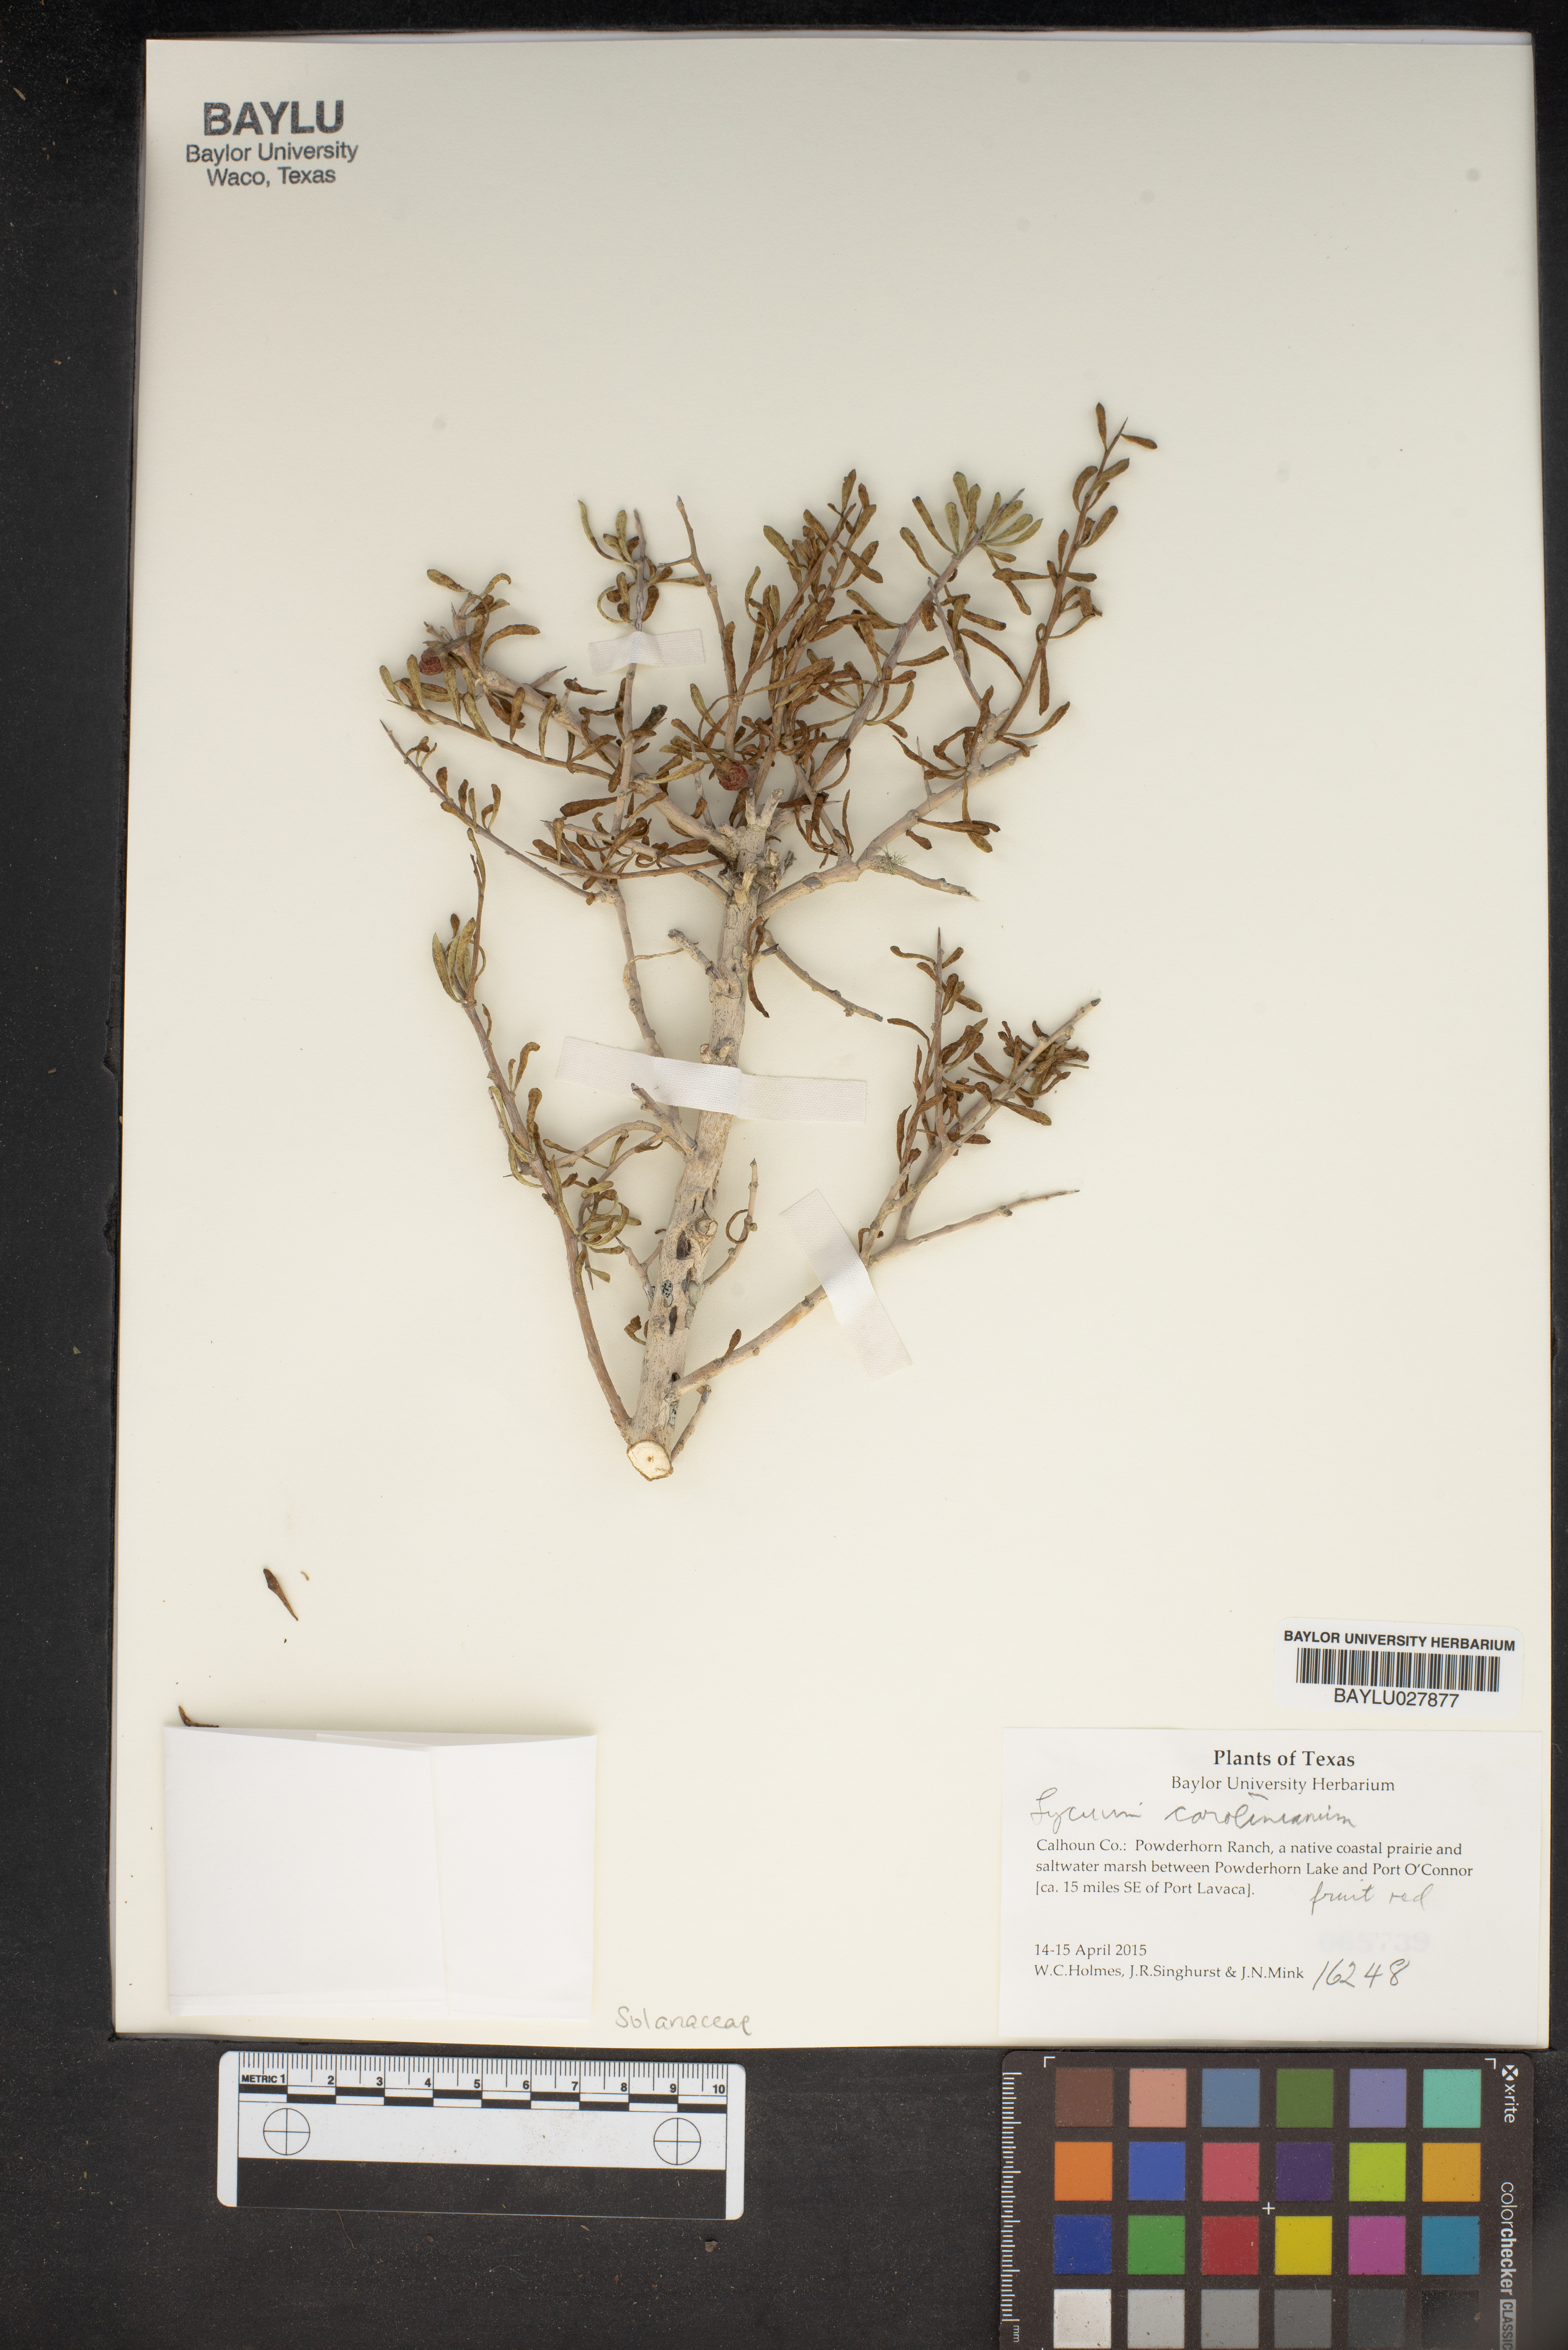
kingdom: Plantae
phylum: Tracheophyta
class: Magnoliopsida
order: Solanales
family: Solanaceae
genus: Lycium
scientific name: Lycium carolinianum
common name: Christmasberry
